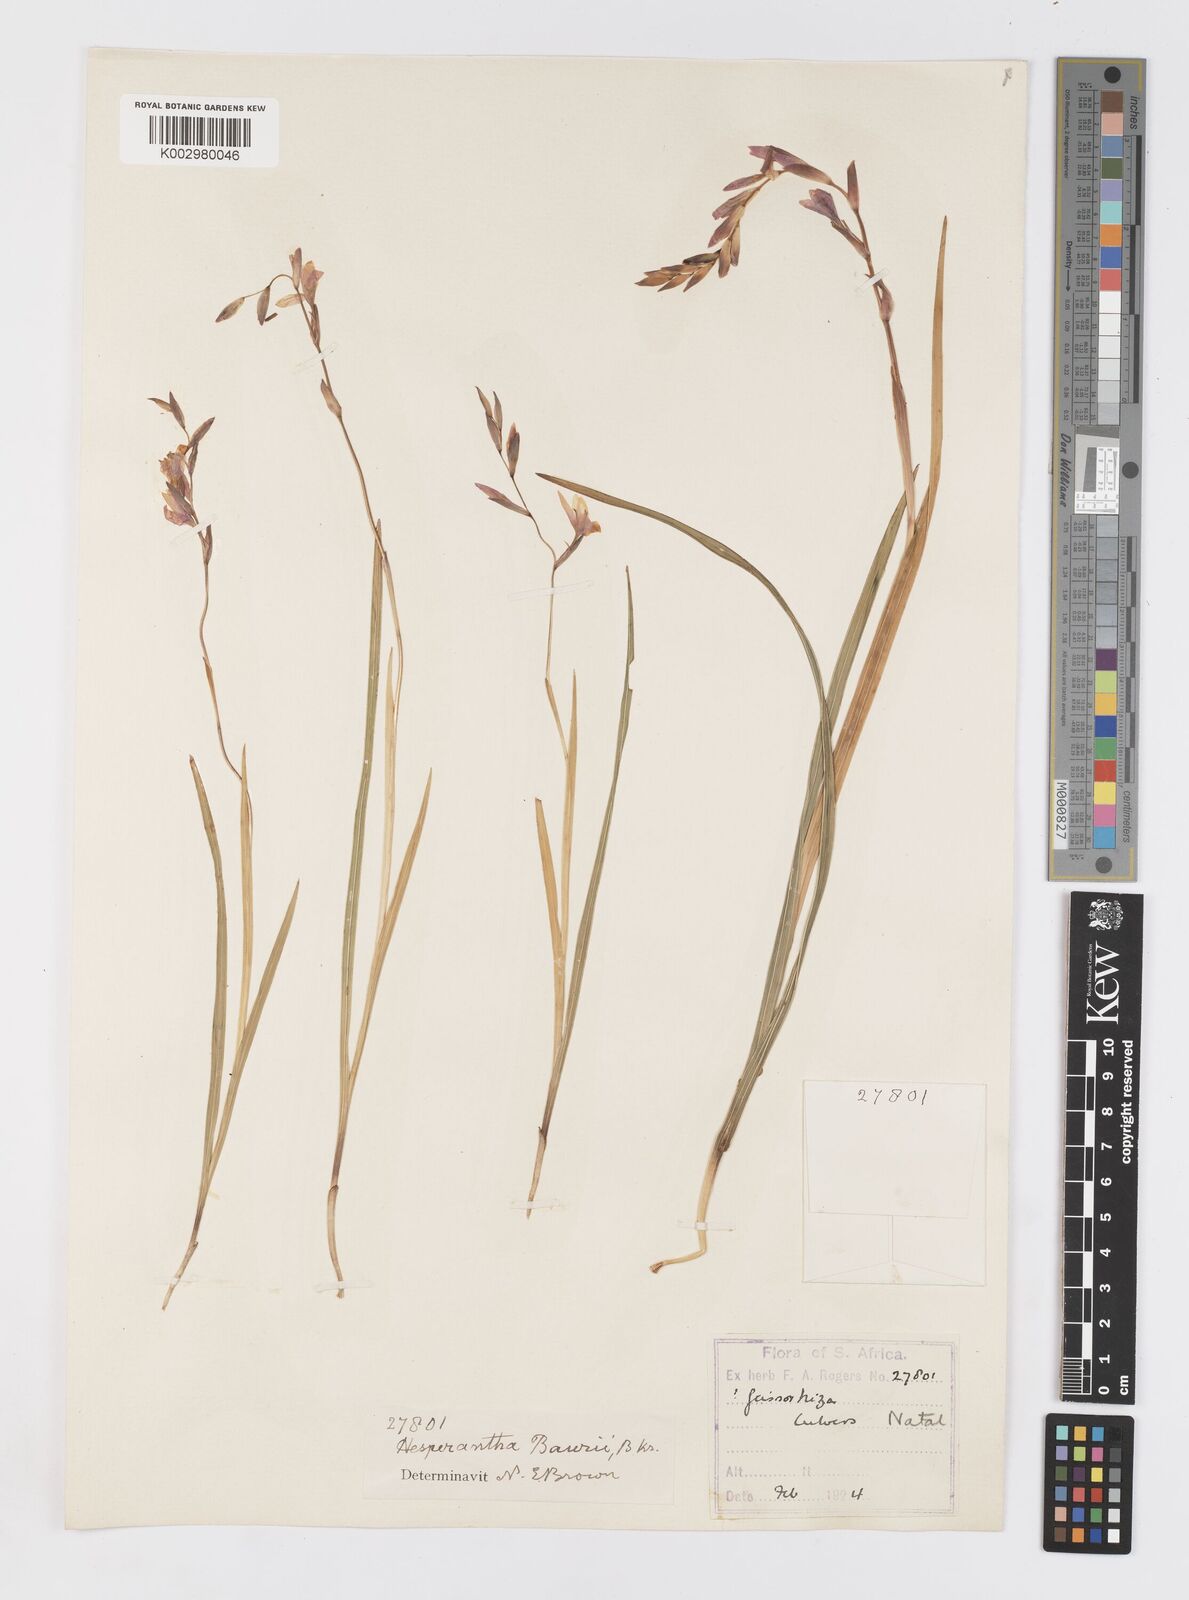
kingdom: Plantae
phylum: Tracheophyta
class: Liliopsida
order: Asparagales
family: Iridaceae
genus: Hesperantha
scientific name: Hesperantha baurii
